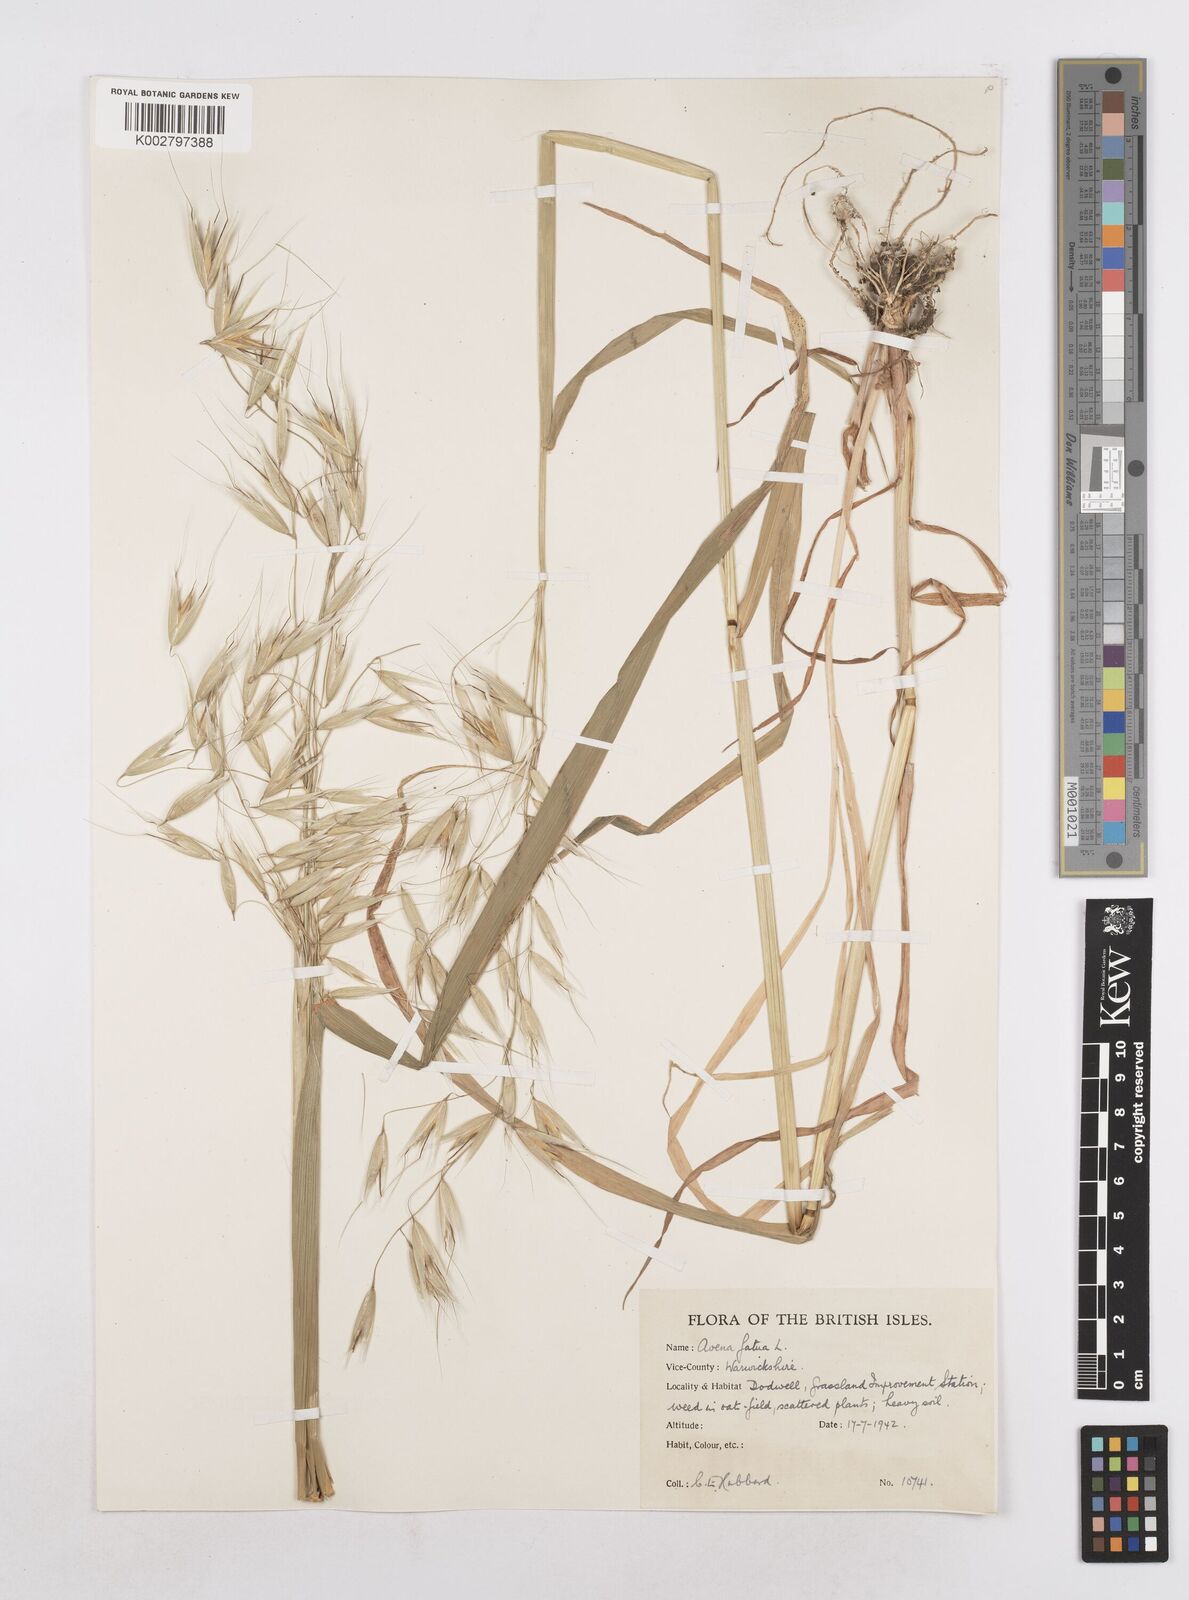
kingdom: Plantae
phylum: Tracheophyta
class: Liliopsida
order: Poales
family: Poaceae
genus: Avena
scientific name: Avena fatua
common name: Wild oat
